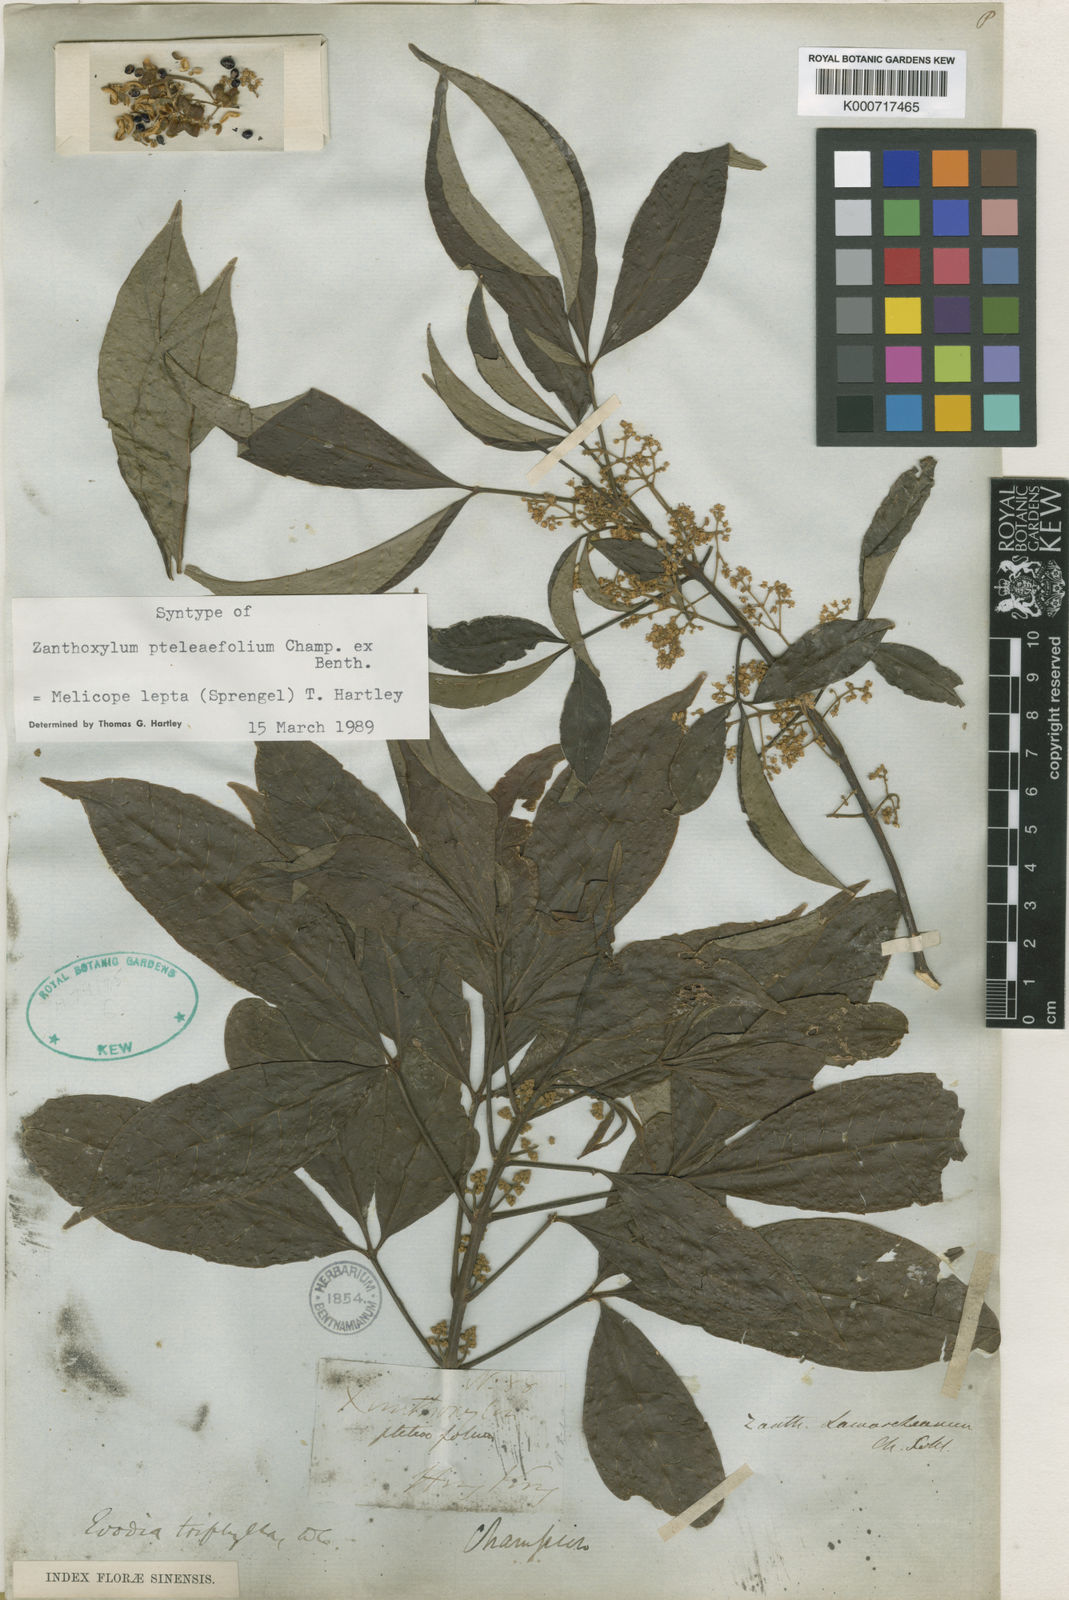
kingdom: Plantae
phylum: Tracheophyta
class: Magnoliopsida
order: Sapindales
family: Rutaceae
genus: Melicope
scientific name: Melicope
